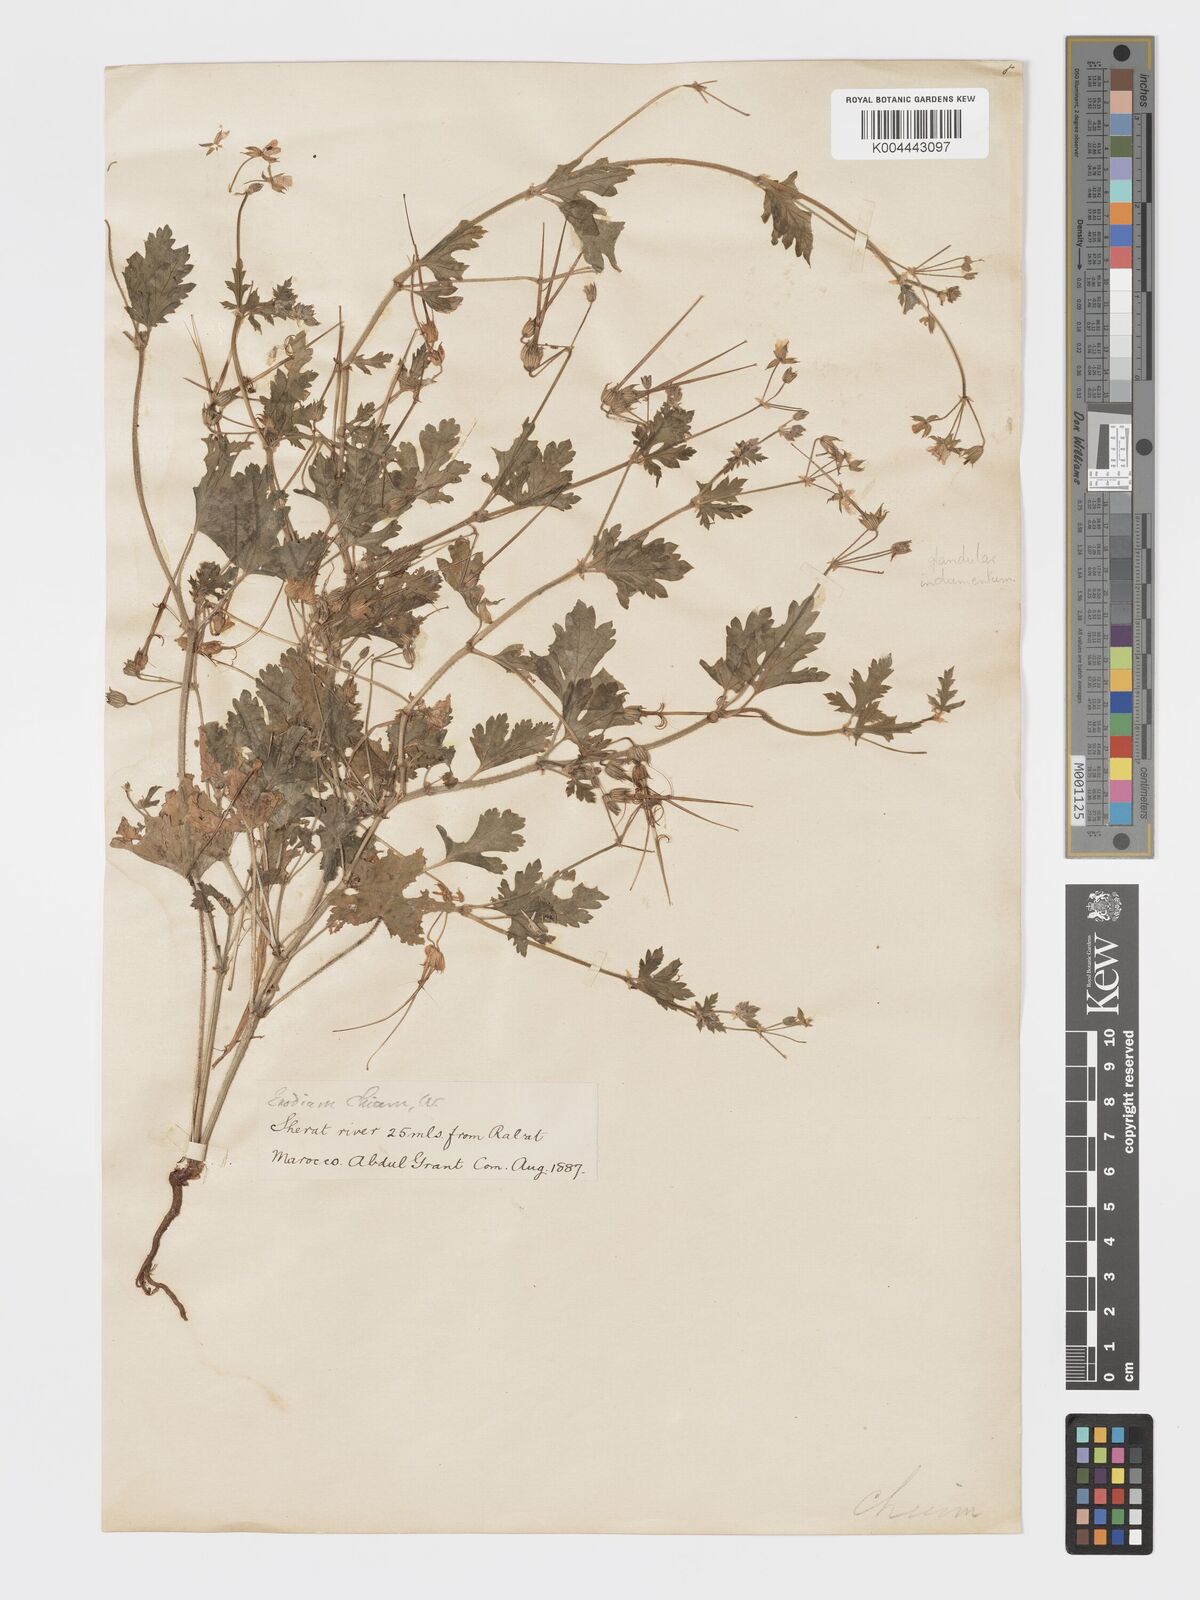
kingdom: Plantae
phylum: Tracheophyta
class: Magnoliopsida
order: Geraniales
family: Geraniaceae
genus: Erodium
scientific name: Erodium laciniatum
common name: Cutleaf stork's bill
